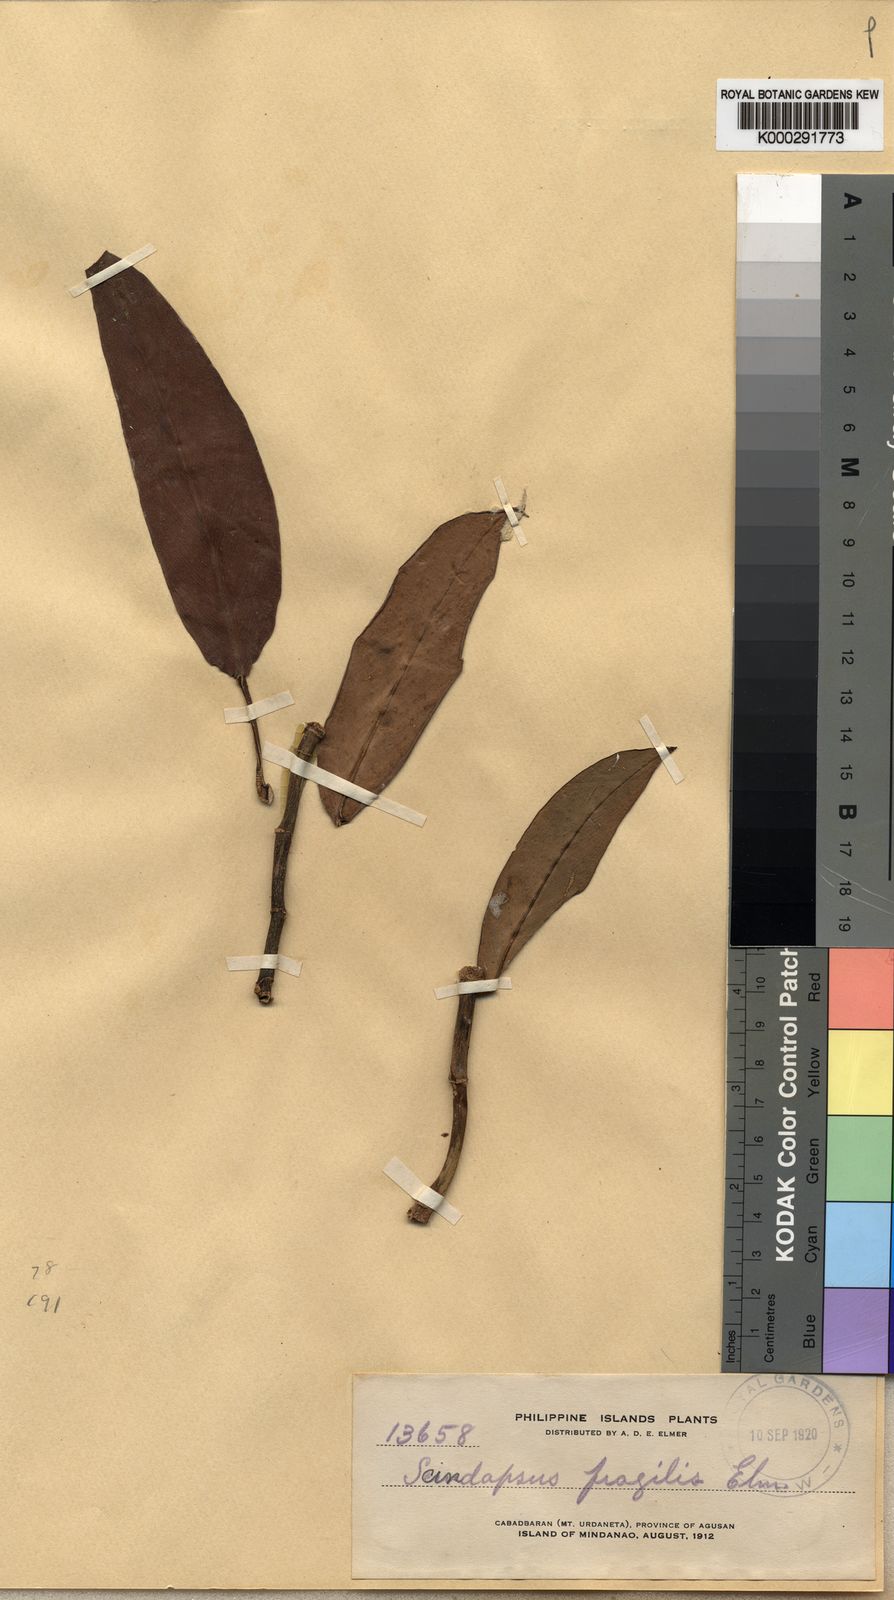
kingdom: Plantae
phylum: Tracheophyta
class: Liliopsida
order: Alismatales
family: Araceae
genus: Rhaphidophora
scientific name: Rhaphidophora cretosa
